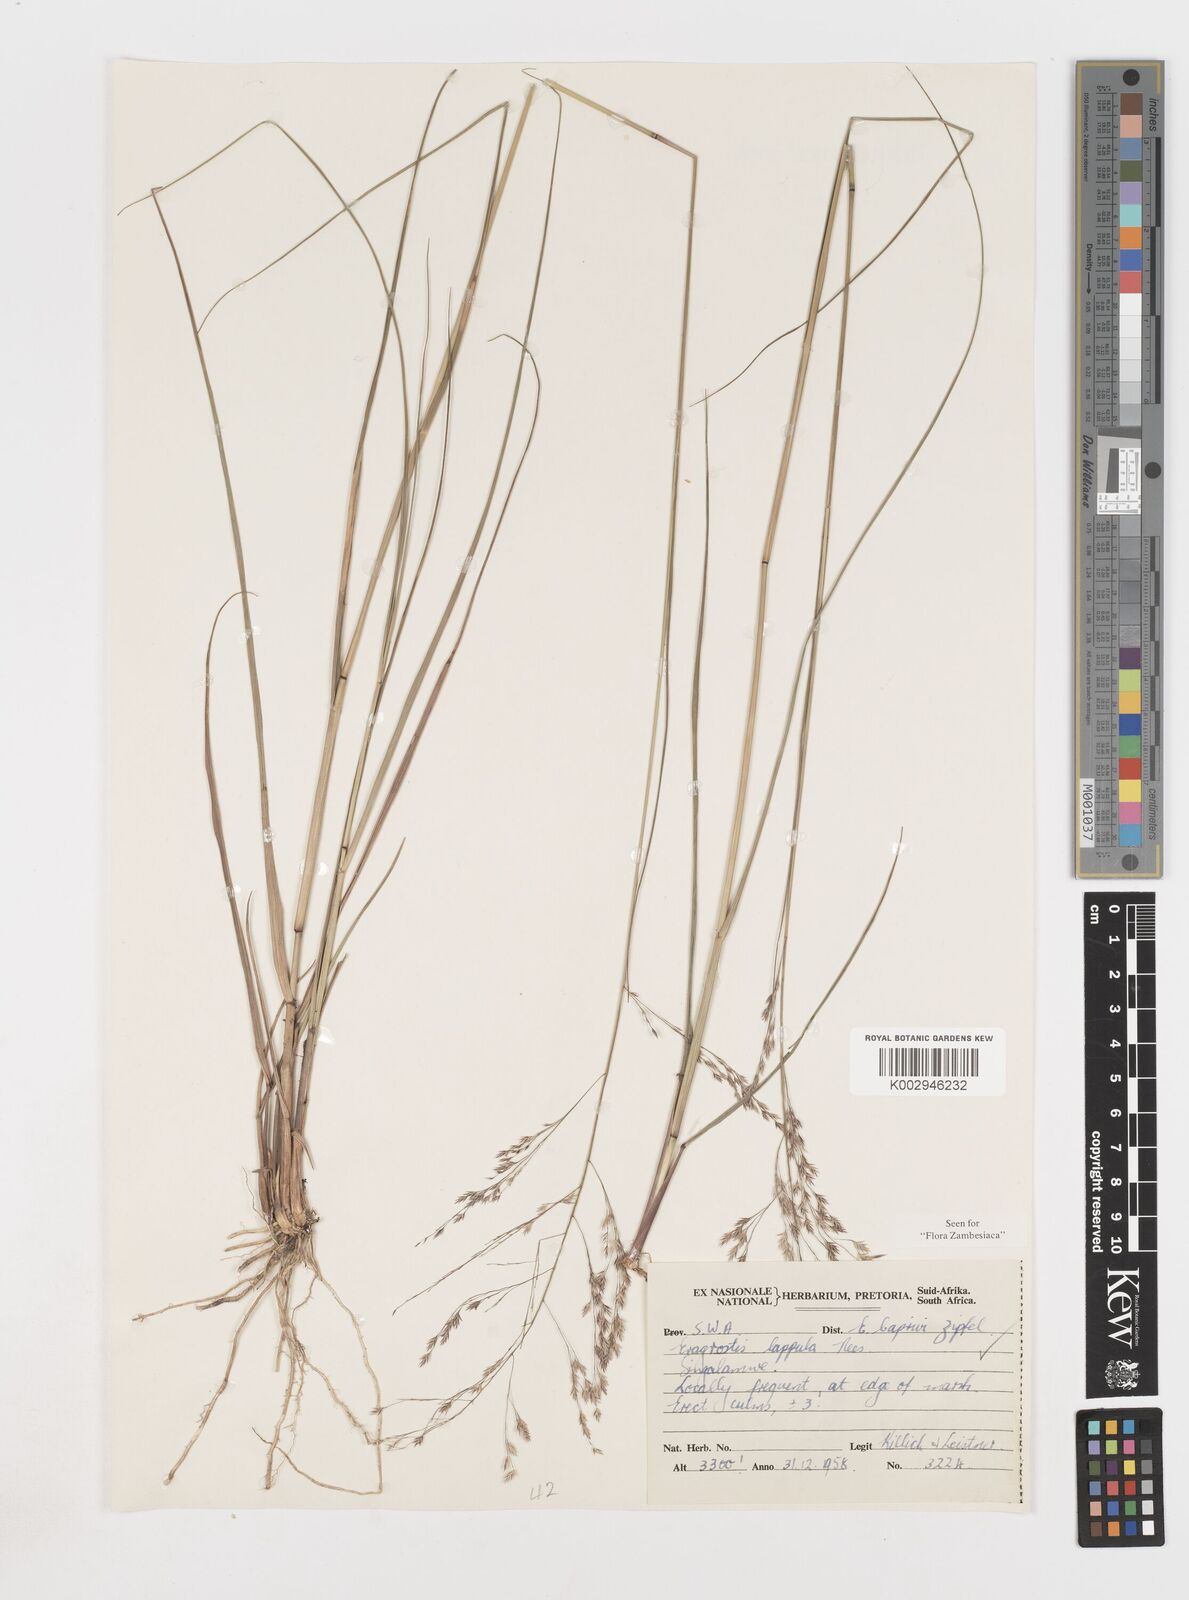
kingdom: Plantae
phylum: Tracheophyta
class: Liliopsida
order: Poales
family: Poaceae
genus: Eragrostis
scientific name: Eragrostis lappula
